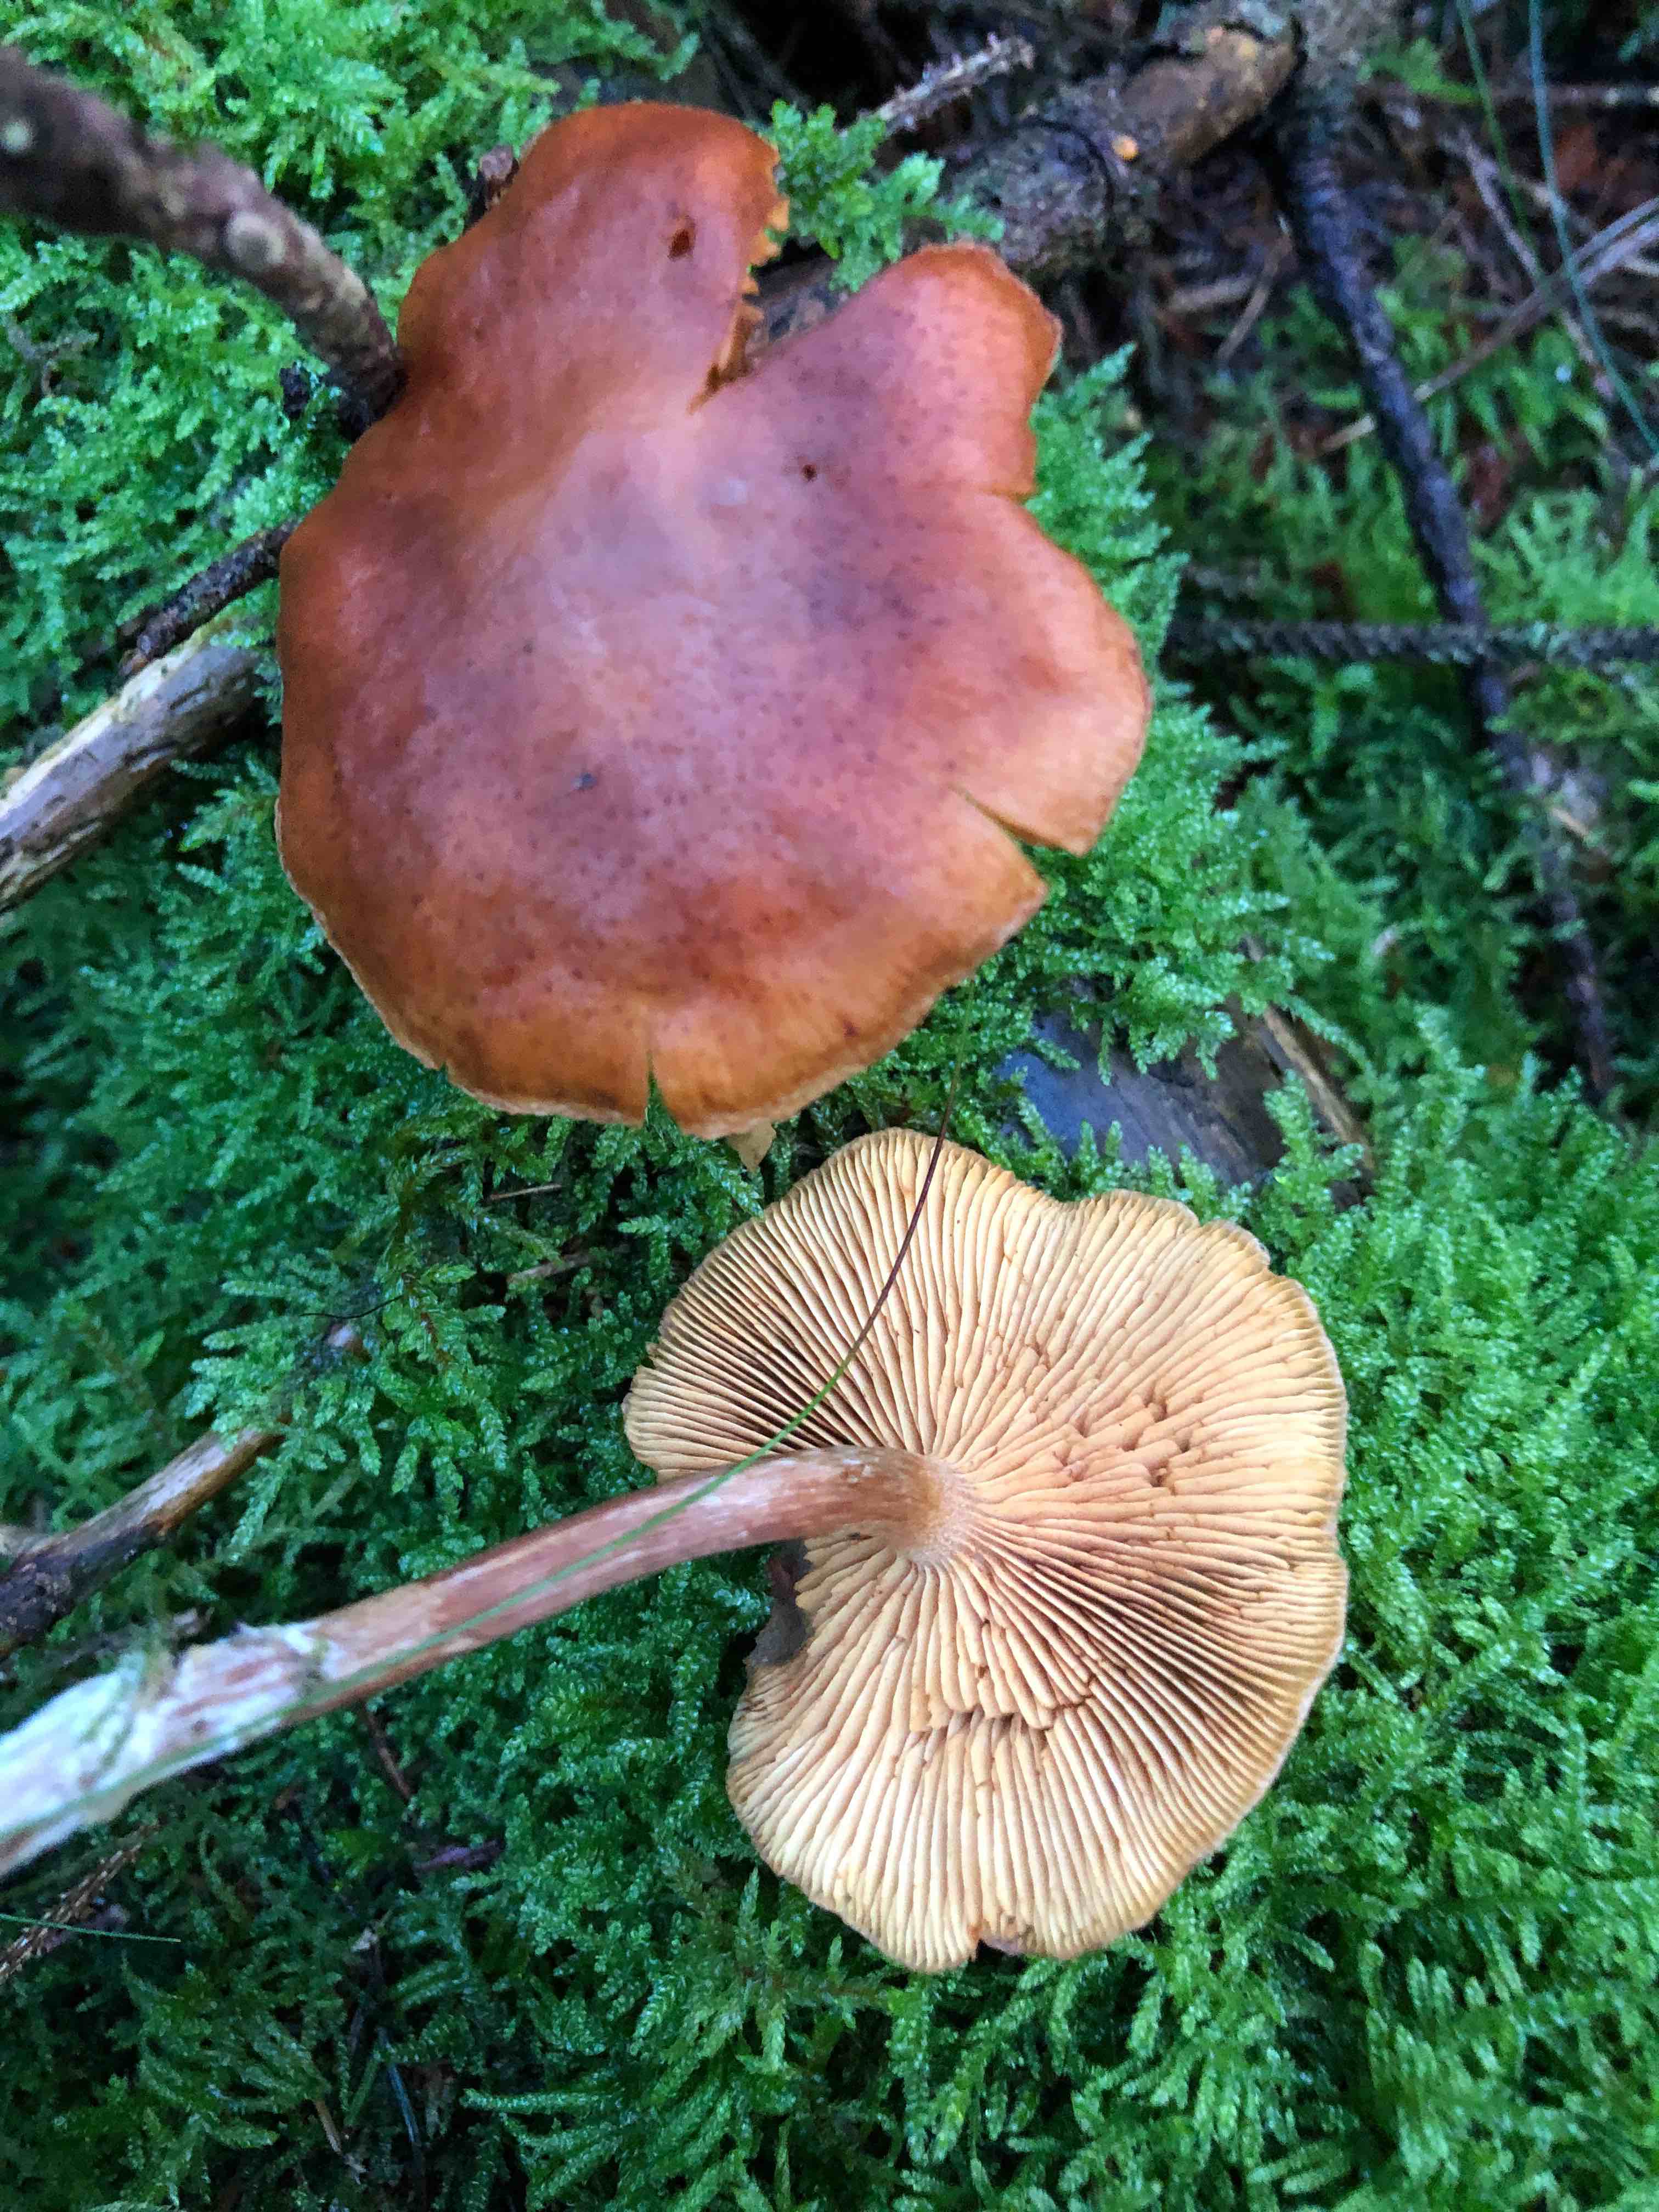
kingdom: Fungi
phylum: Basidiomycota
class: Agaricomycetes
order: Agaricales
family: Hymenogastraceae
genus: Gymnopilus
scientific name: Gymnopilus penetrans
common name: plettet flammehat
